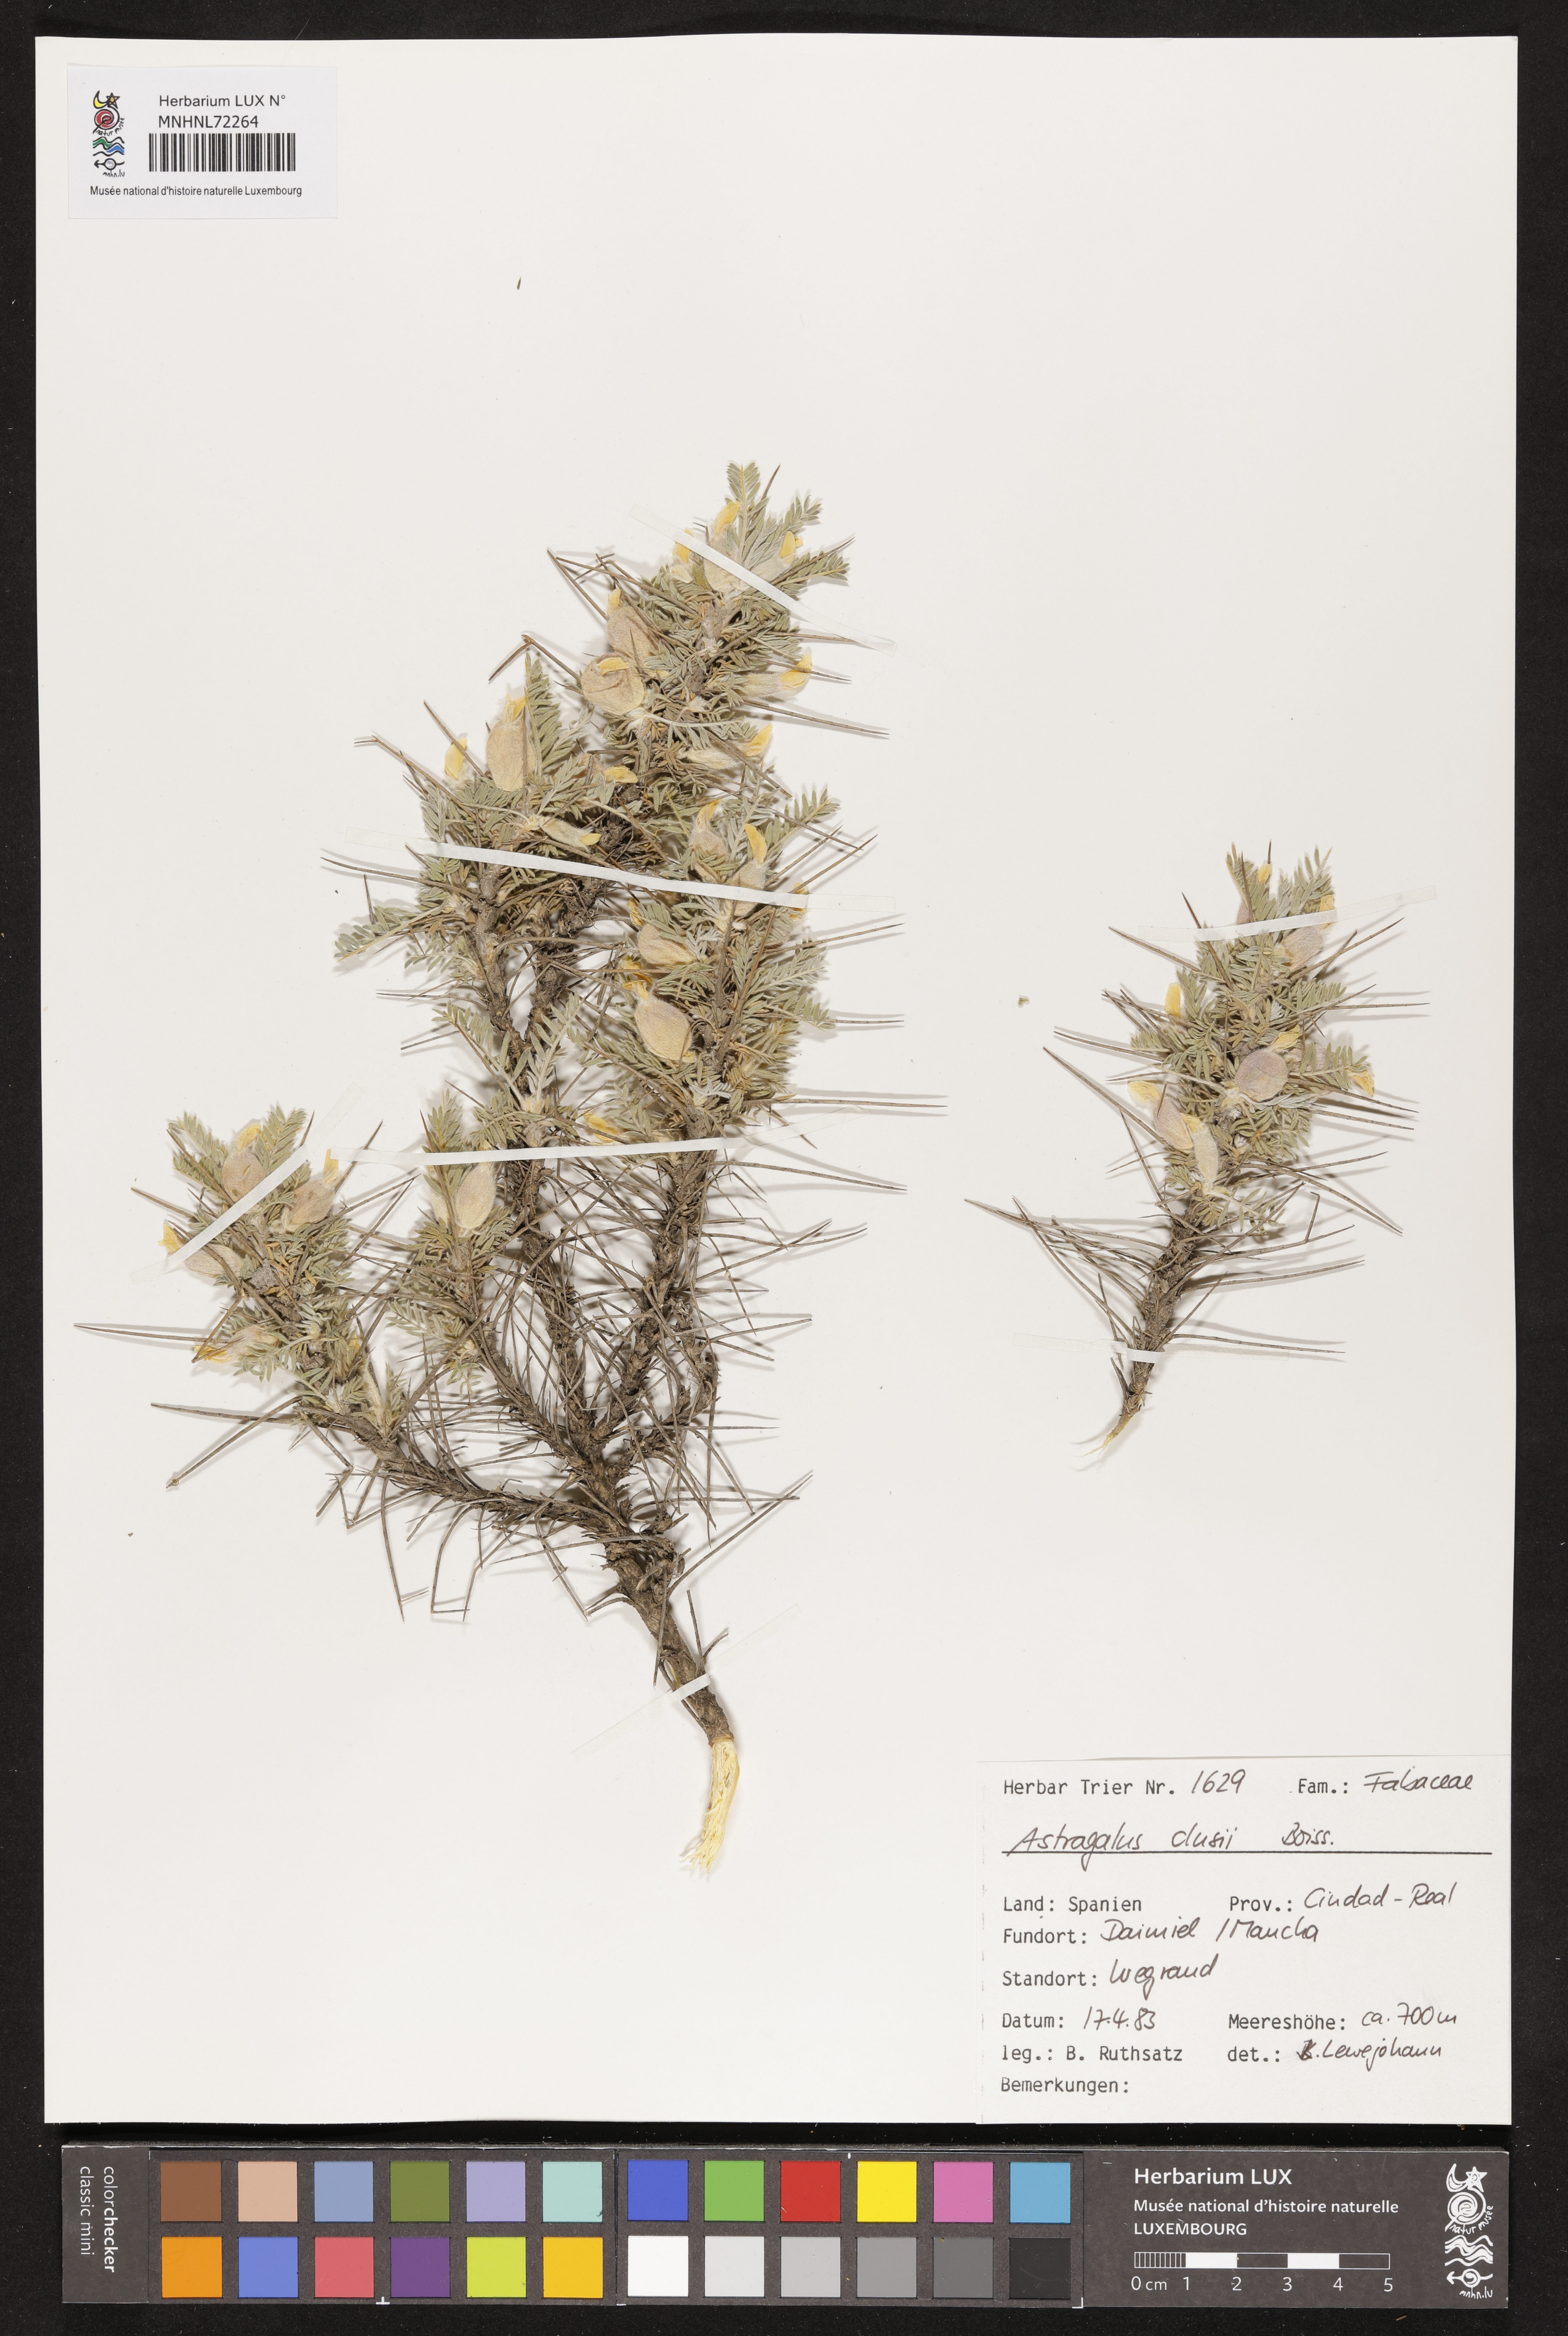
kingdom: Plantae
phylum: Tracheophyta
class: Magnoliopsida
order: Fabales
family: Fabaceae
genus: Astragalus
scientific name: Astragalus clusianus
